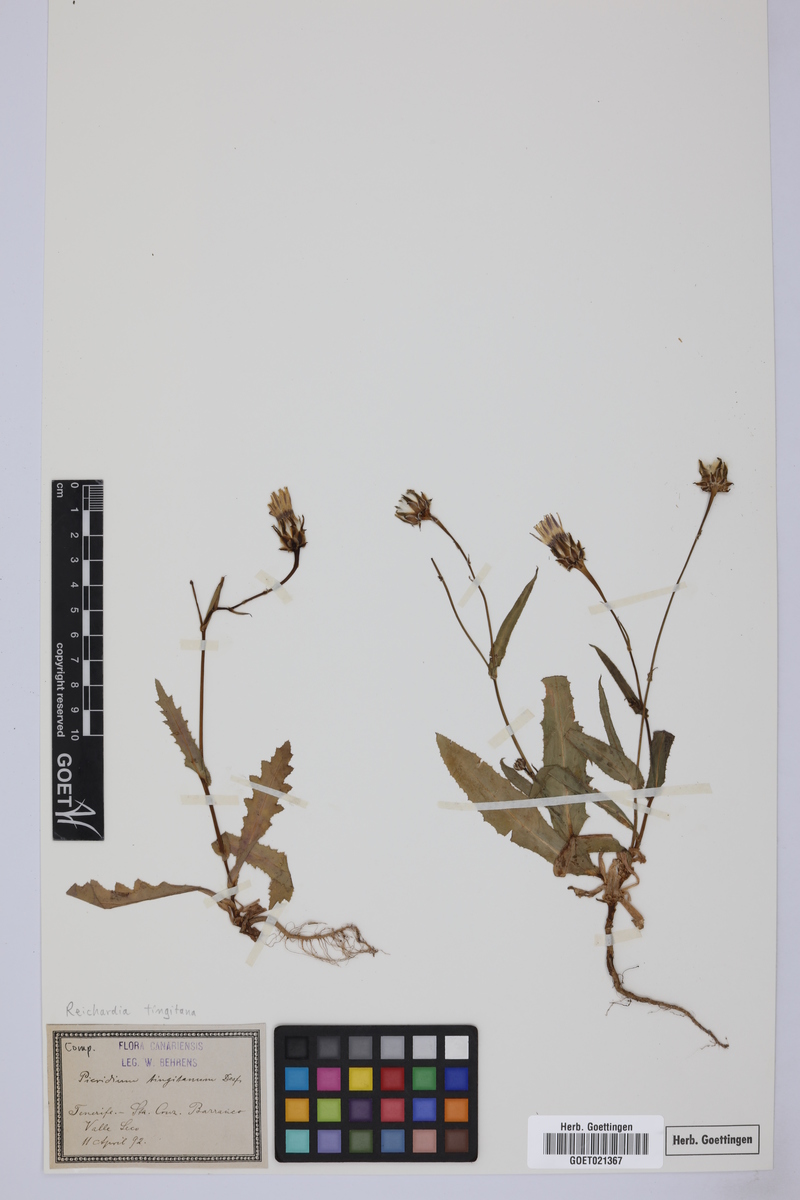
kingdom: Plantae
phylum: Tracheophyta
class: Magnoliopsida
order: Asterales
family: Asteraceae
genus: Reichardia
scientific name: Reichardia tingitana
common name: Reichardia
